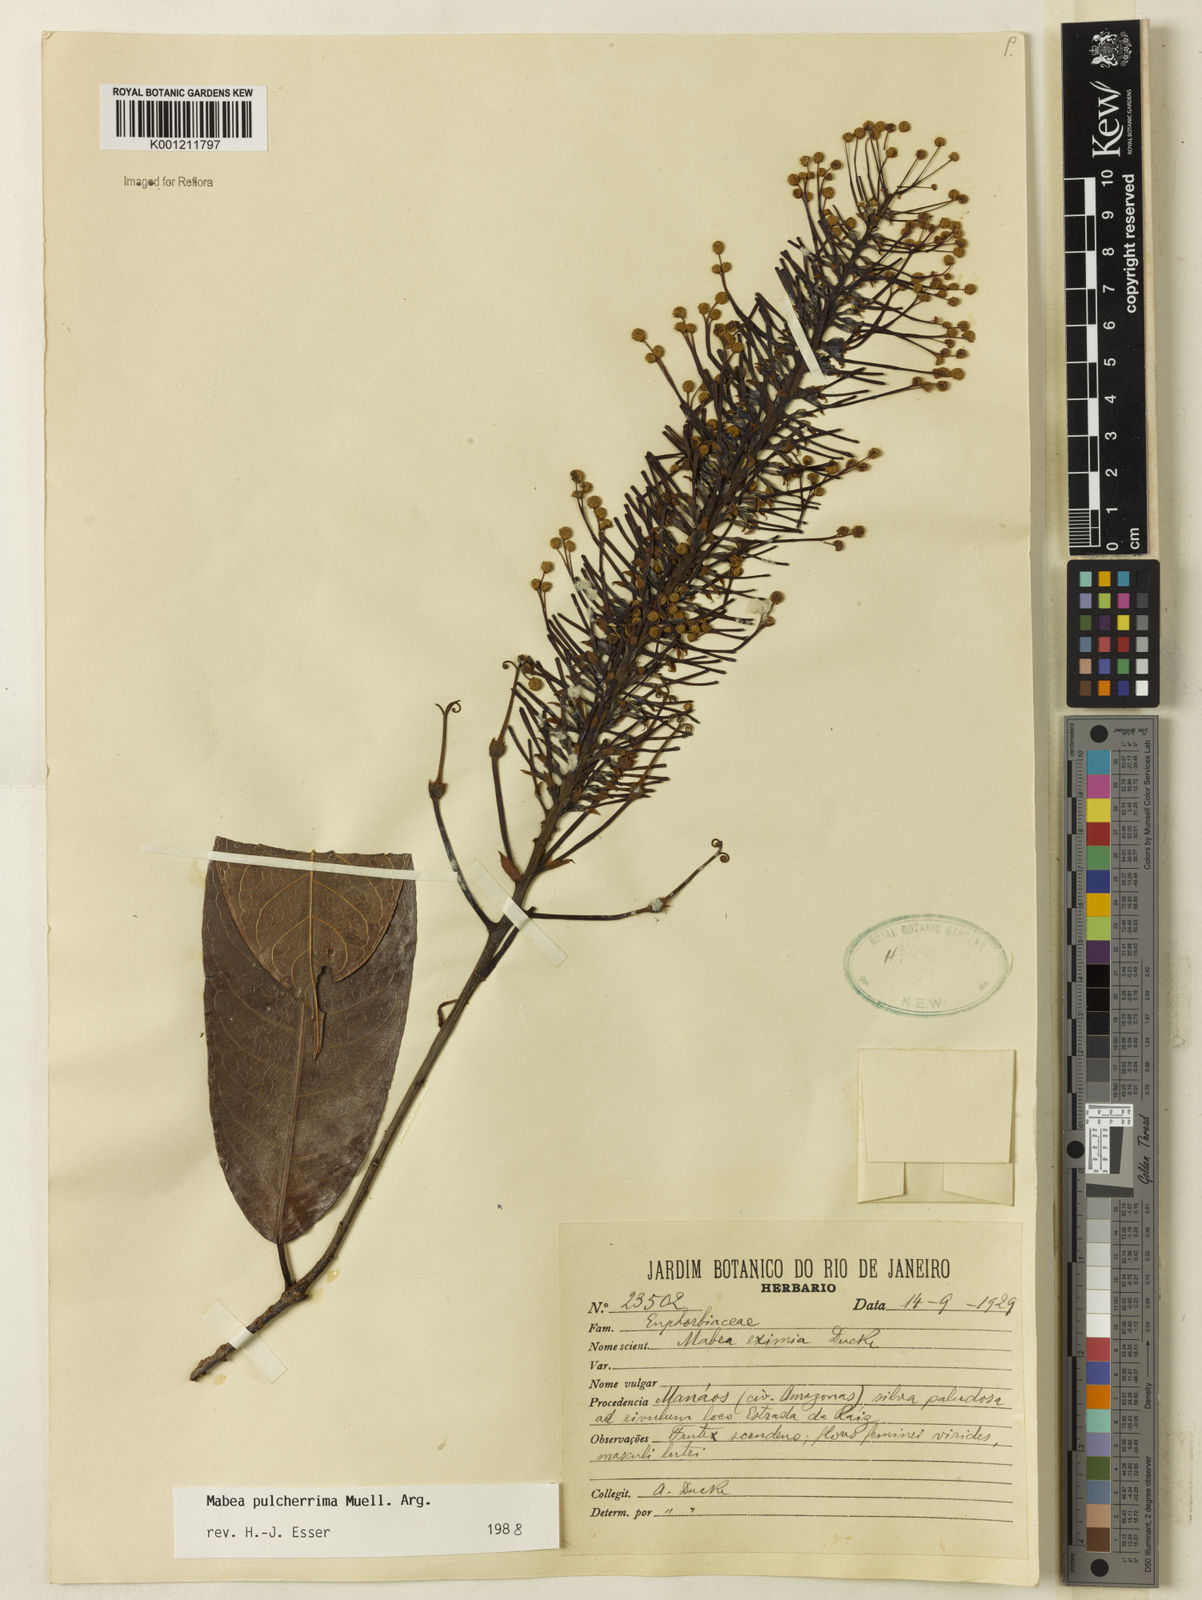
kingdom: Plantae
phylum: Tracheophyta
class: Magnoliopsida
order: Malpighiales
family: Euphorbiaceae
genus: Mabea
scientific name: Mabea
